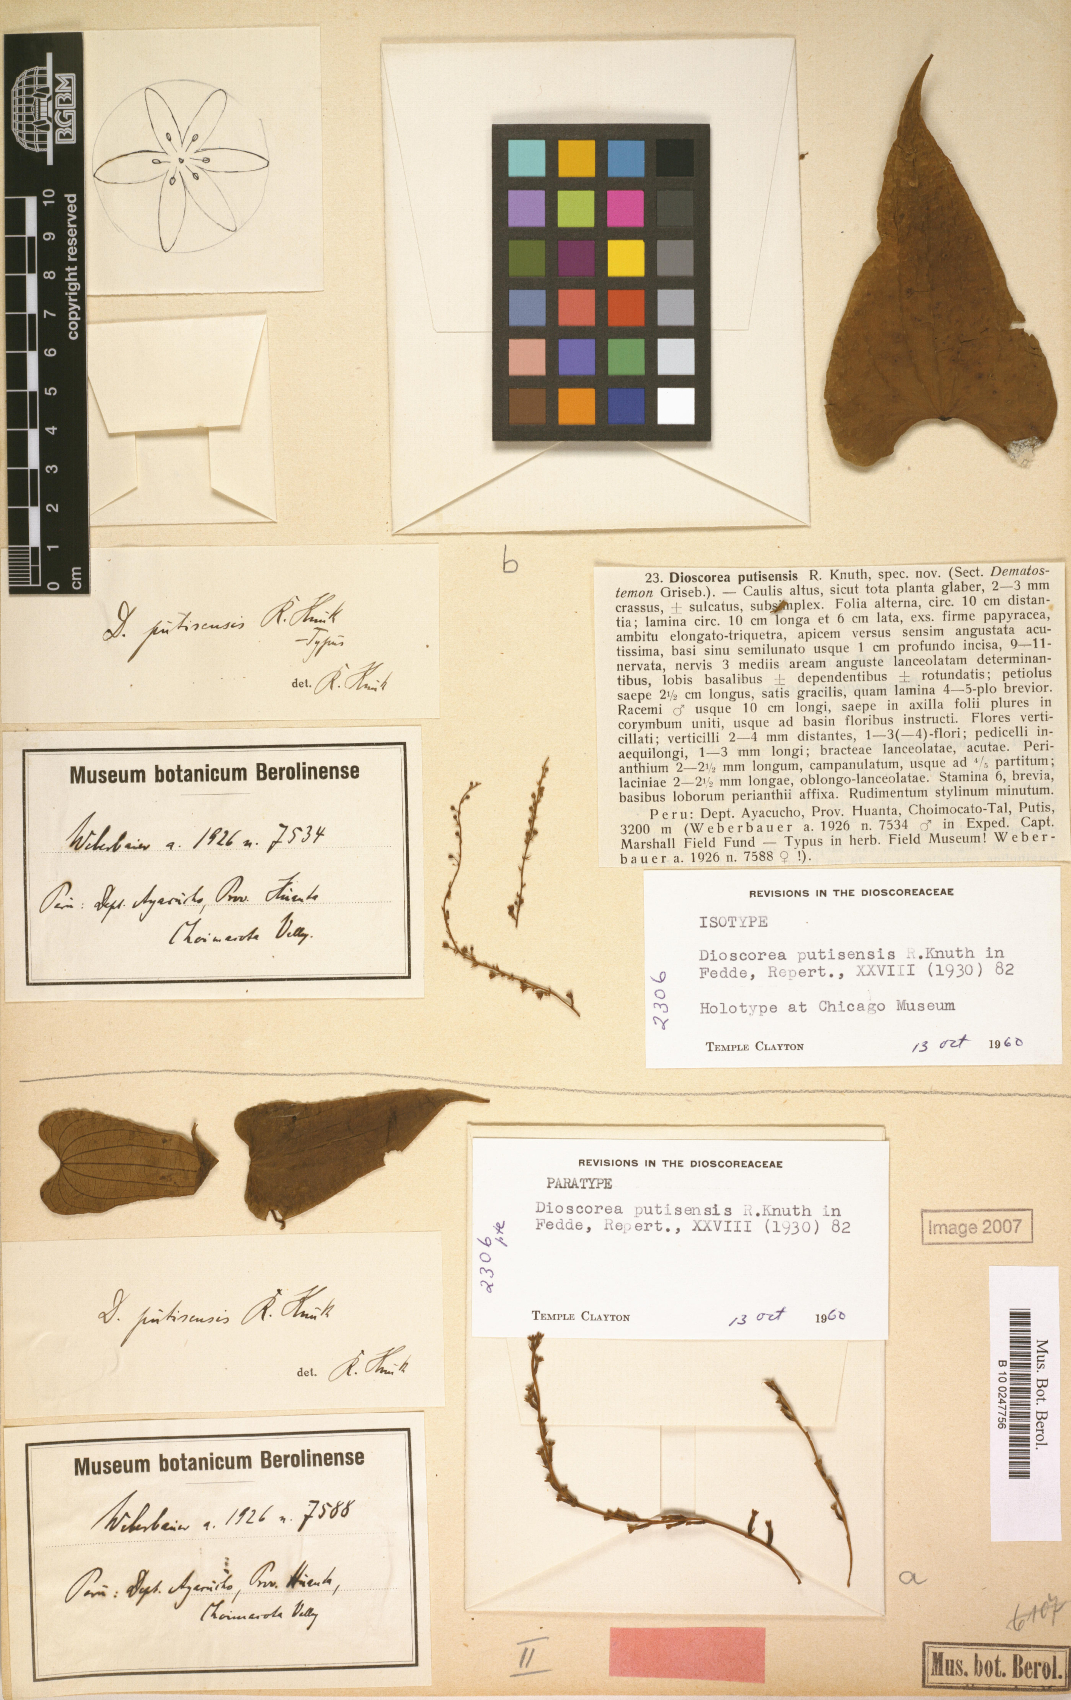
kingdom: Plantae
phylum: Tracheophyta
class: Liliopsida
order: Dioscoreales
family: Dioscoreaceae
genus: Dioscorea
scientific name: Dioscorea putisensis
